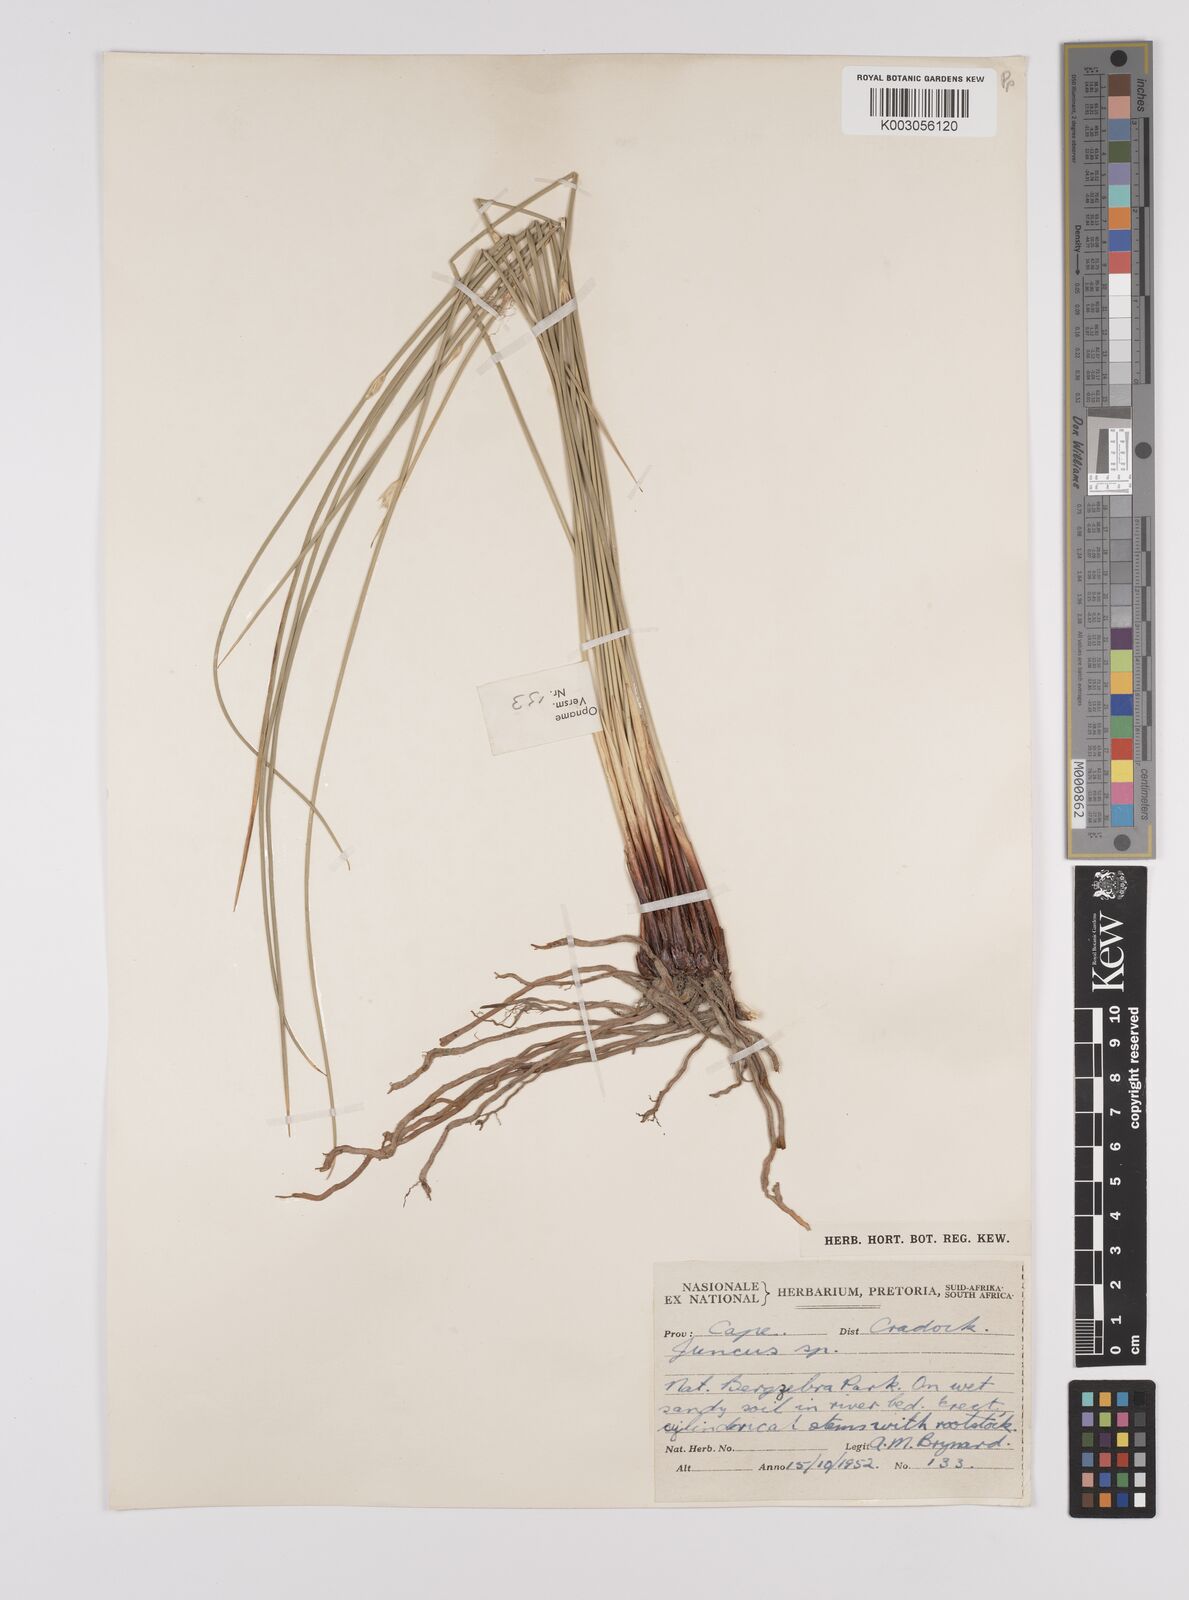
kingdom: Plantae
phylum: Tracheophyta
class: Liliopsida
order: Poales
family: Juncaceae
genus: Juncus
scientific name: Juncus
